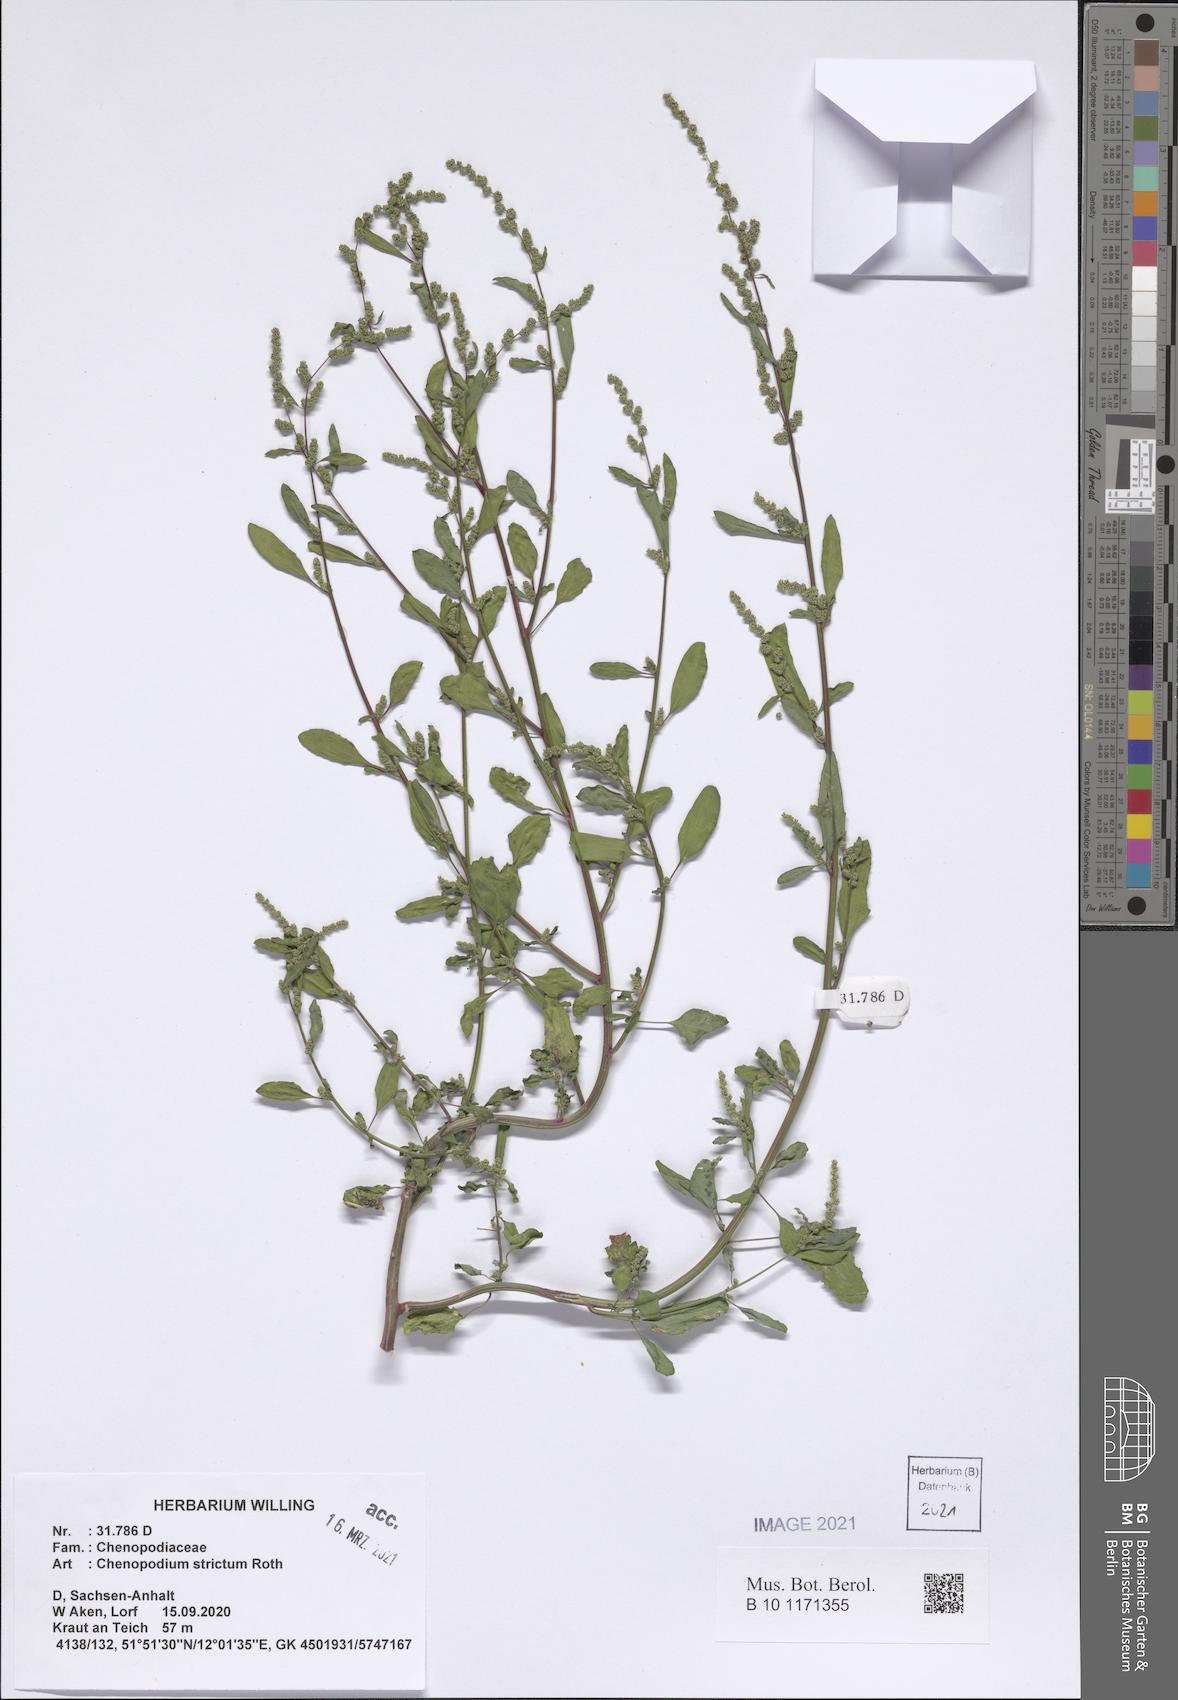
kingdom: Plantae
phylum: Tracheophyta
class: Magnoliopsida
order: Caryophyllales
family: Amaranthaceae
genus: Chenopodium
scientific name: Chenopodium album
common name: Fat-hen
